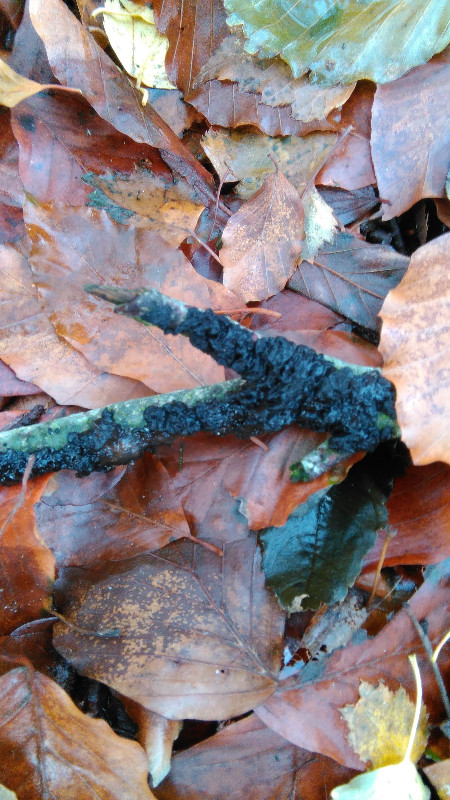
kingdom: Fungi
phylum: Basidiomycota
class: Agaricomycetes
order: Auriculariales
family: Auriculariaceae
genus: Exidia
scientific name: Exidia nigricans
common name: almindelig bævretop
